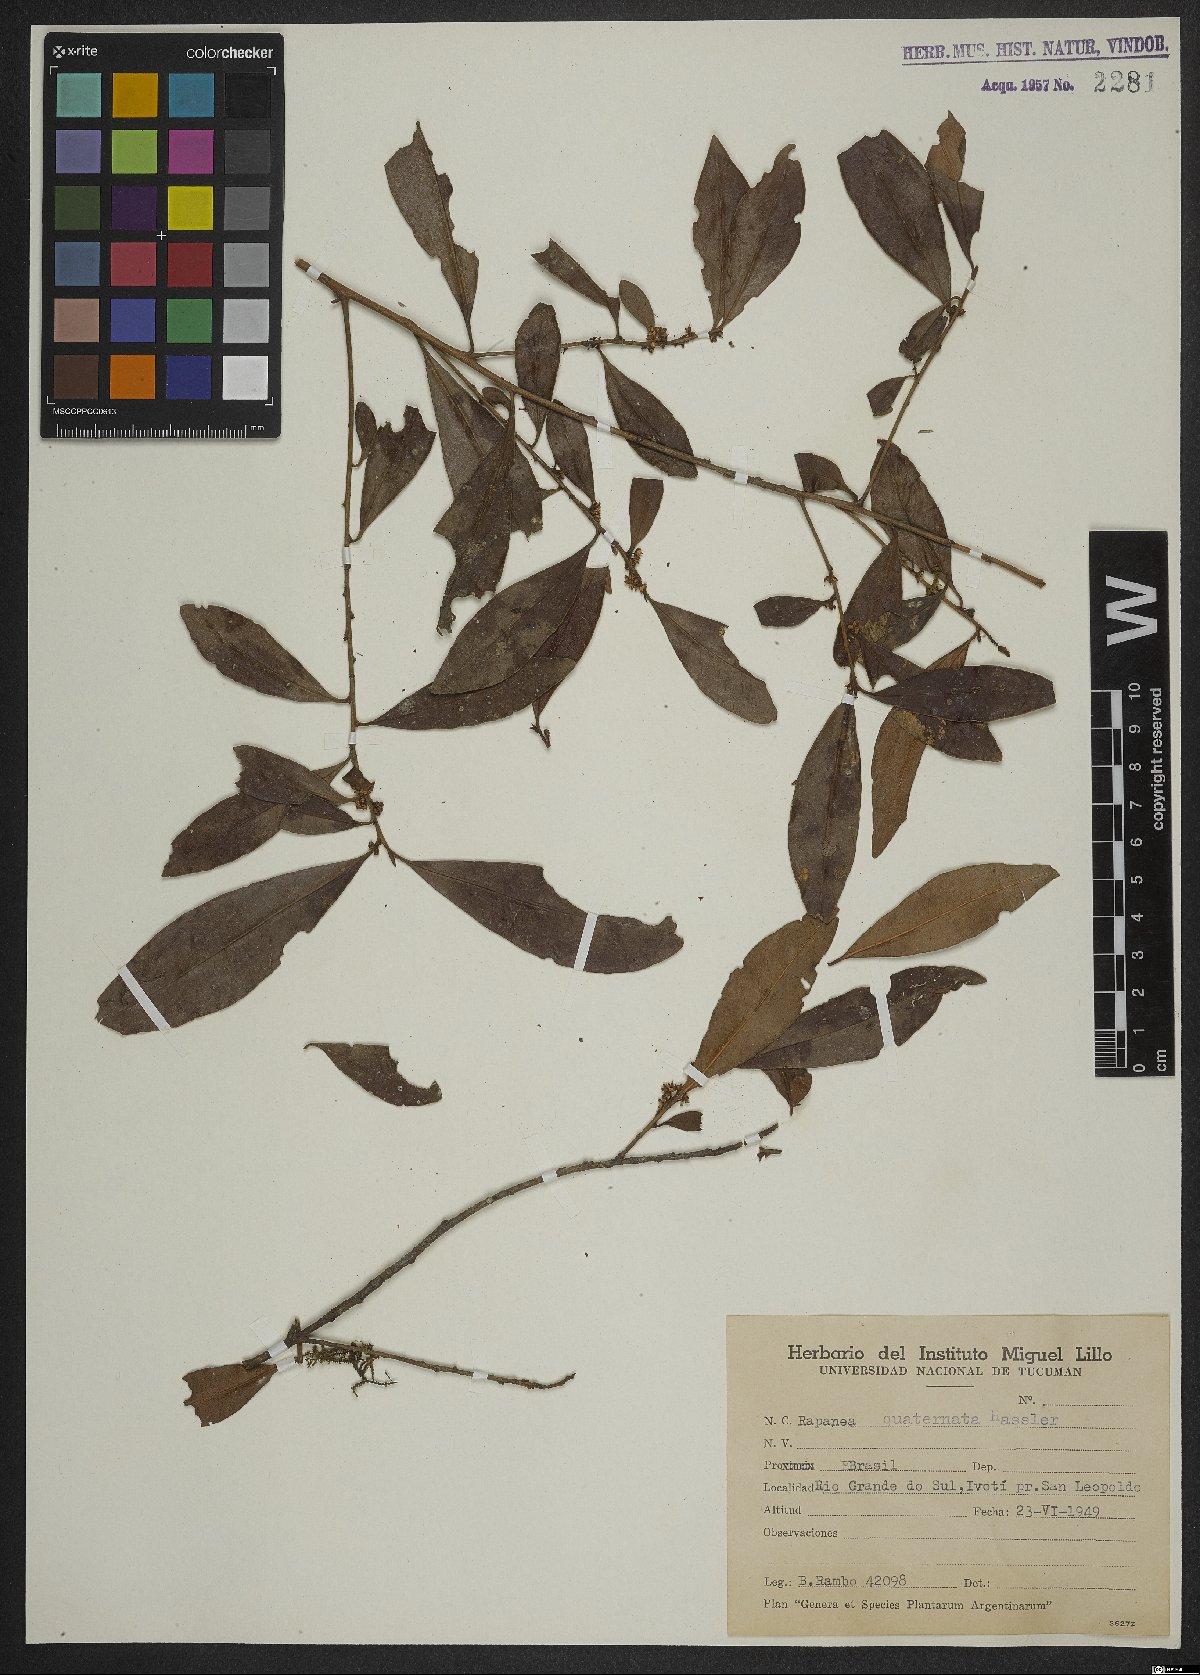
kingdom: Plantae
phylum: Tracheophyta
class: Magnoliopsida
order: Ericales
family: Primulaceae
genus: Myrsine
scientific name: Myrsine loefgrenii
